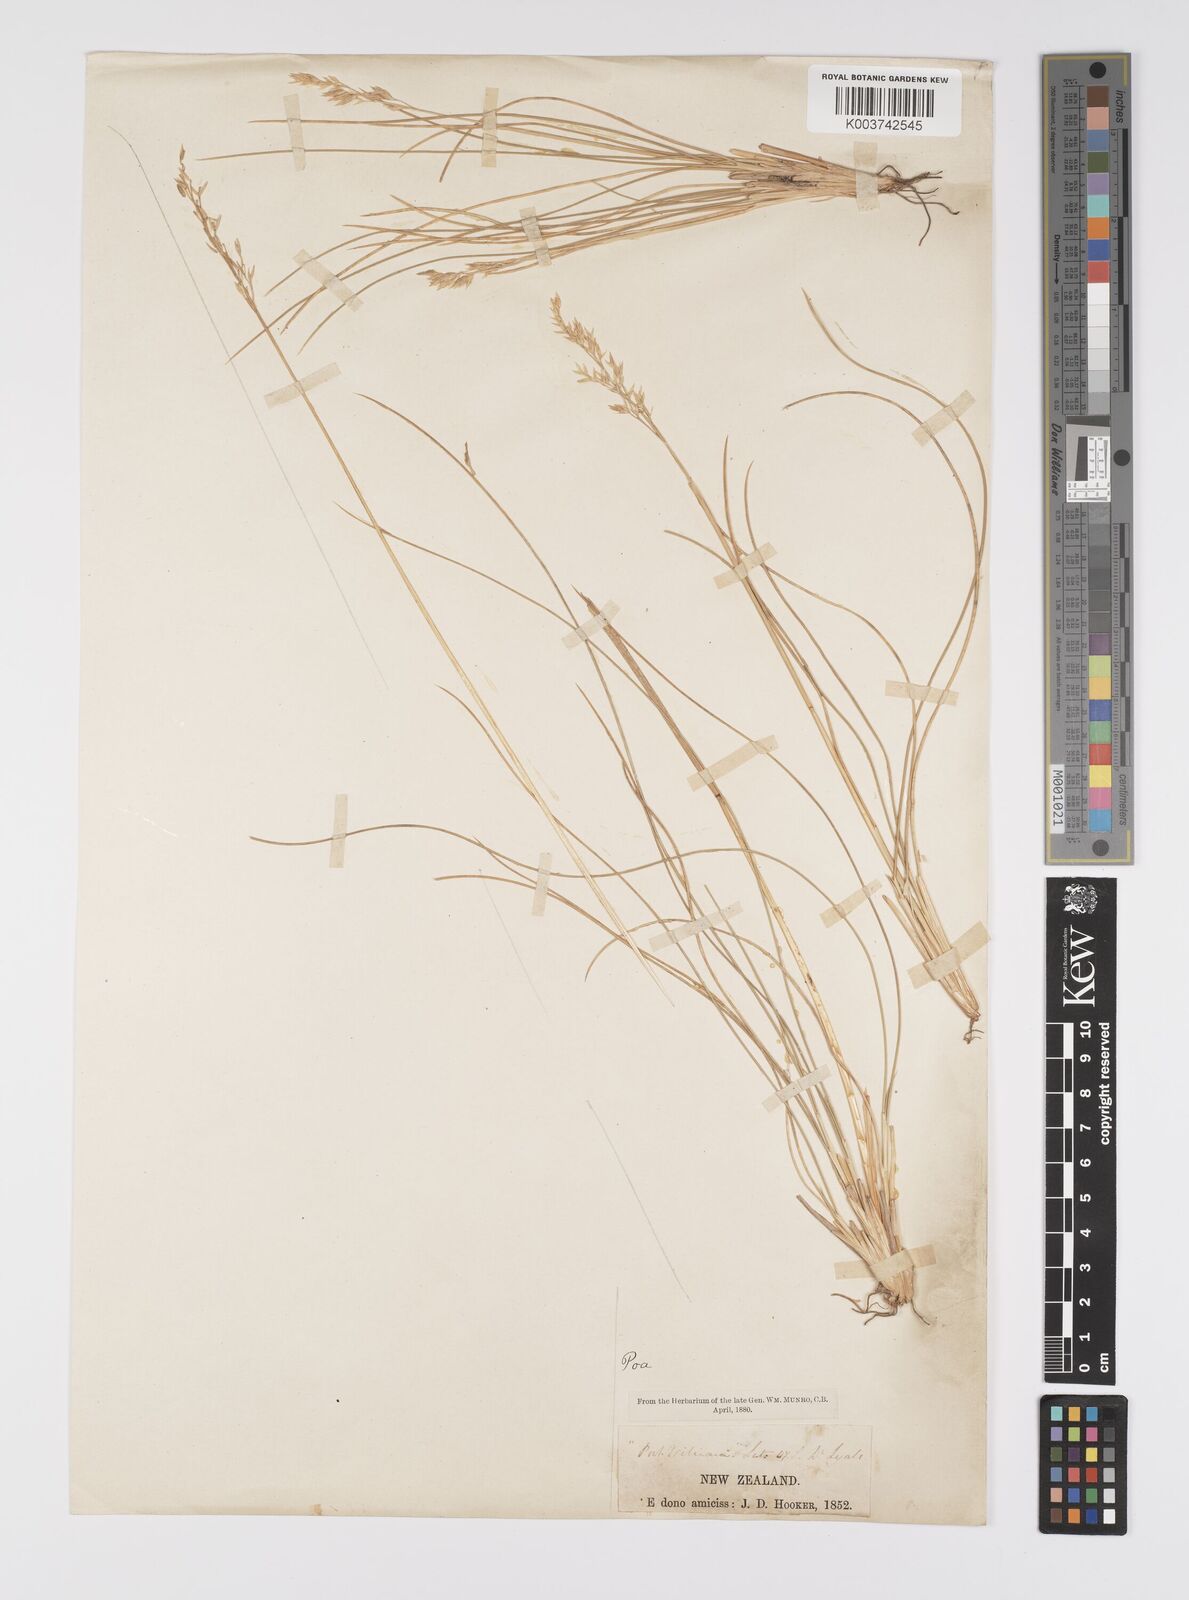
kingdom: Plantae
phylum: Tracheophyta
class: Liliopsida
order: Poales
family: Poaceae
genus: Poa
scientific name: Poa astonii
